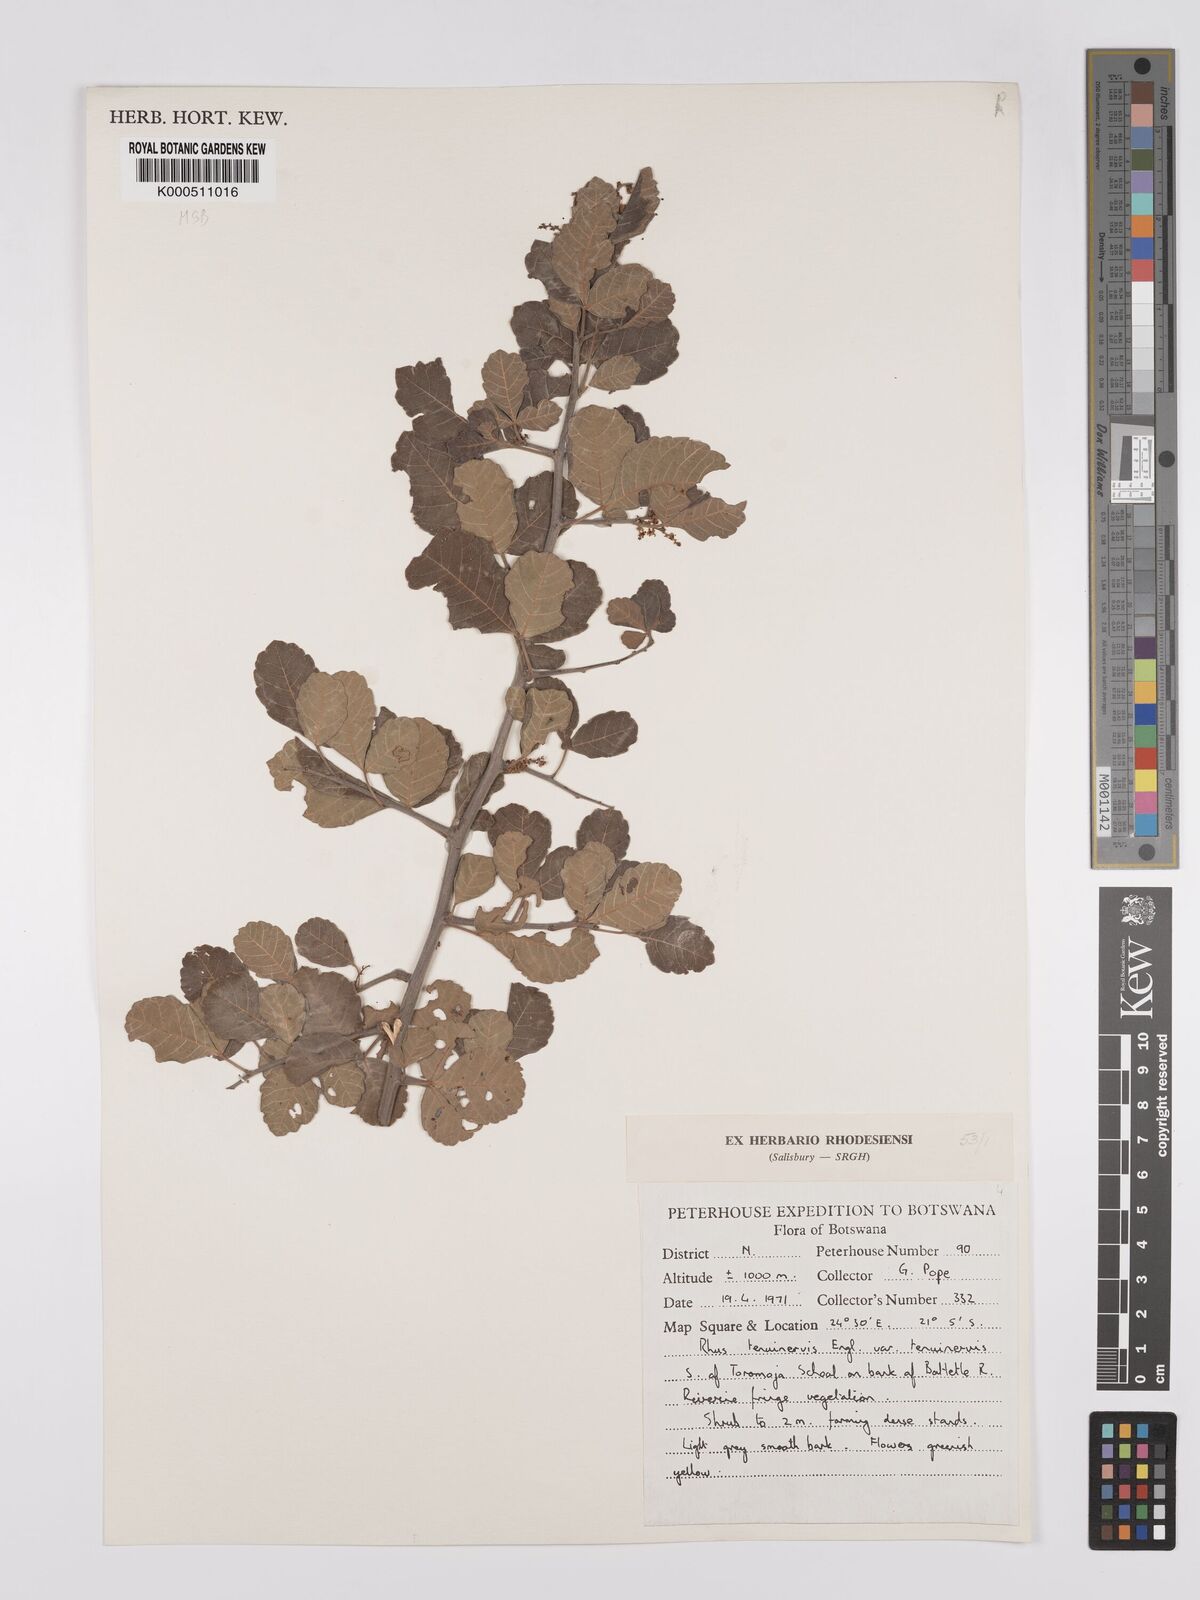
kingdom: Plantae
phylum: Tracheophyta
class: Magnoliopsida
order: Sapindales
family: Anacardiaceae
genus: Searsia
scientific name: Searsia tenuinervis
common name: Hyaena taaibos
